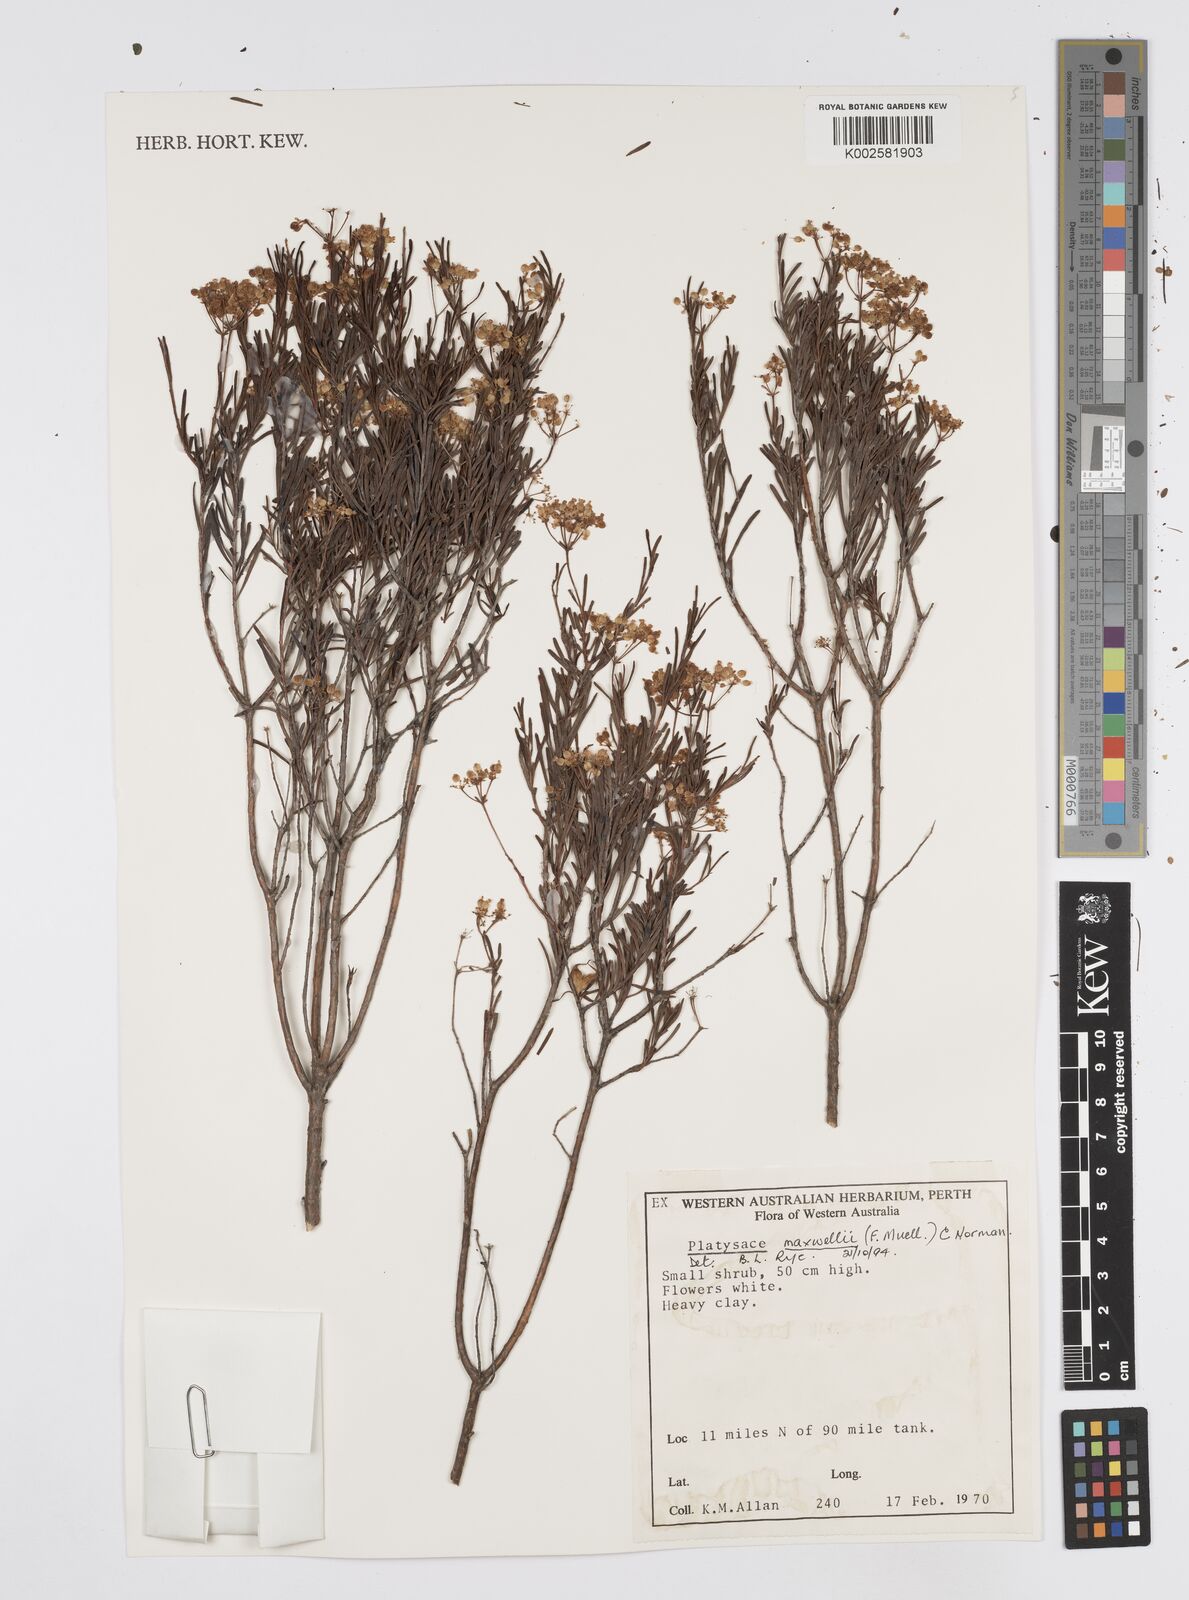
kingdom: Plantae
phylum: Tracheophyta
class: Magnoliopsida
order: Apiales
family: Apiaceae
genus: Platysace
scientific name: Platysace maxwellii
